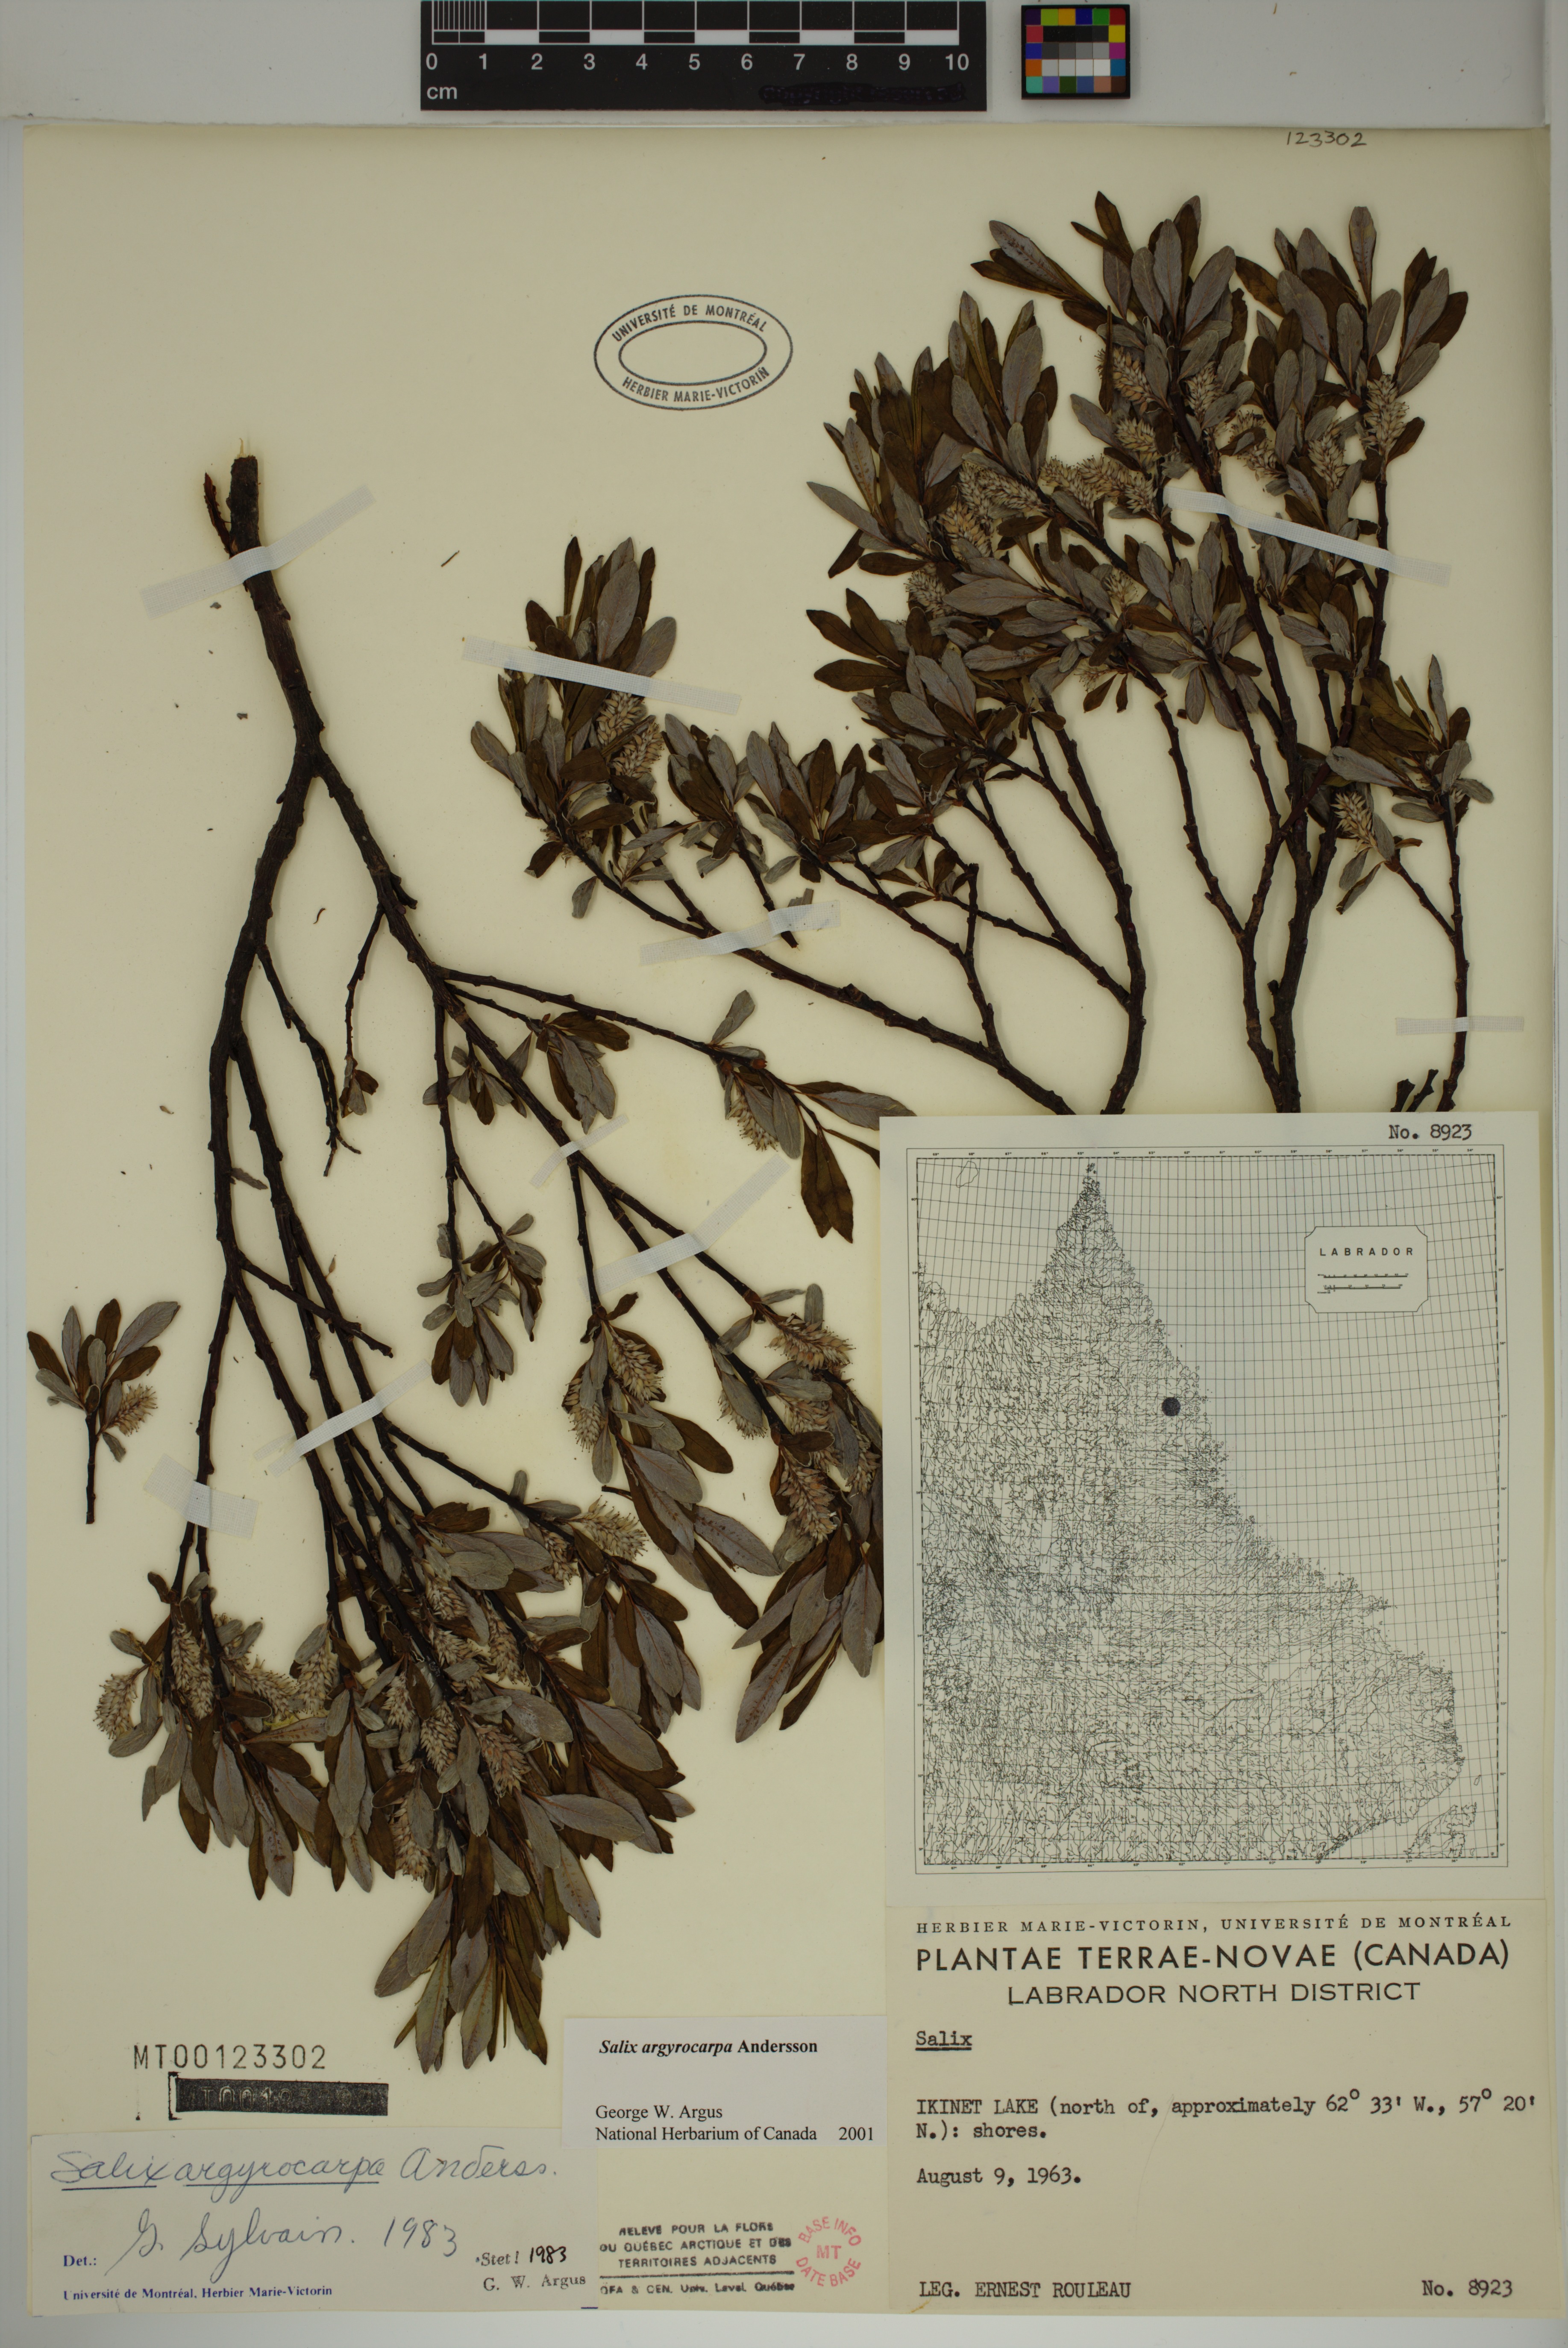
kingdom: Plantae
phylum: Tracheophyta
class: Magnoliopsida
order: Malpighiales
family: Salicaceae
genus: Salix
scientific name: Salix argyrocarpa
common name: Labrador willow
